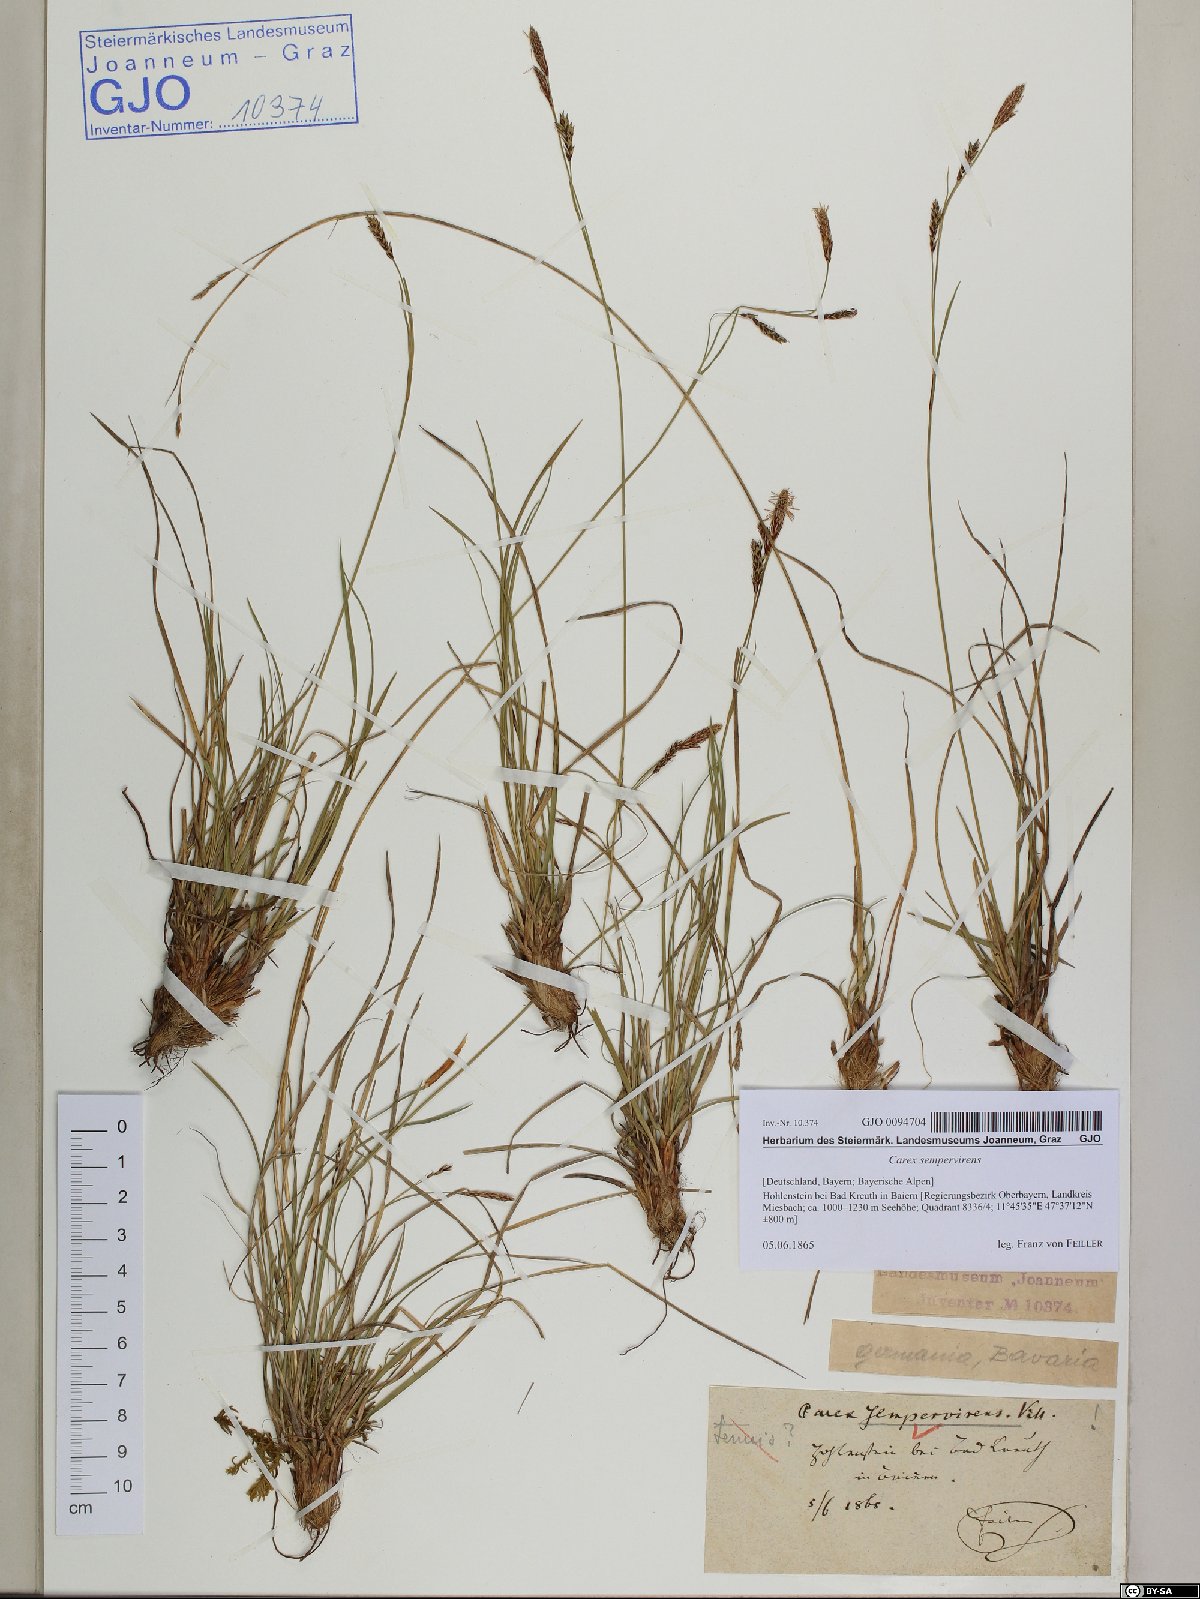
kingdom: Plantae
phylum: Tracheophyta
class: Liliopsida
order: Poales
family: Cyperaceae
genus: Carex
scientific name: Carex sempervirens
